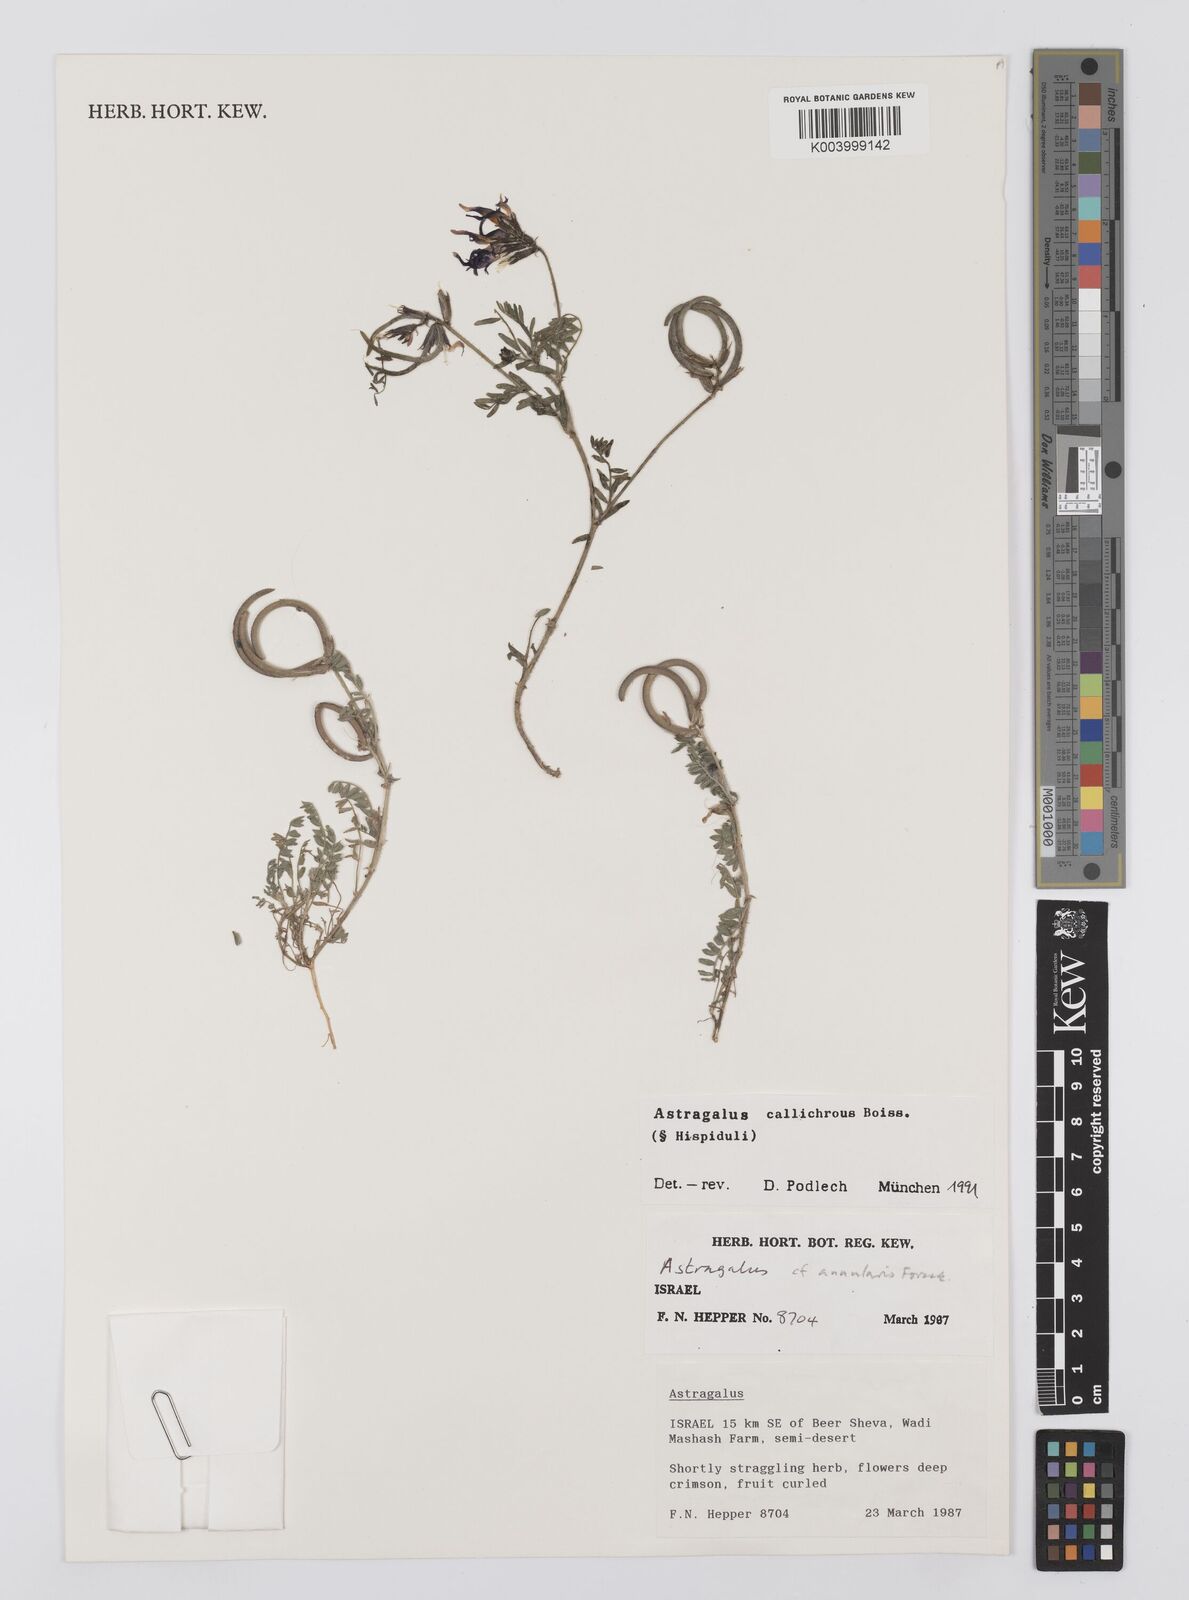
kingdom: Plantae
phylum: Tracheophyta
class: Magnoliopsida
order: Fabales
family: Fabaceae
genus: Astragalus
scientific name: Astragalus callichrous
